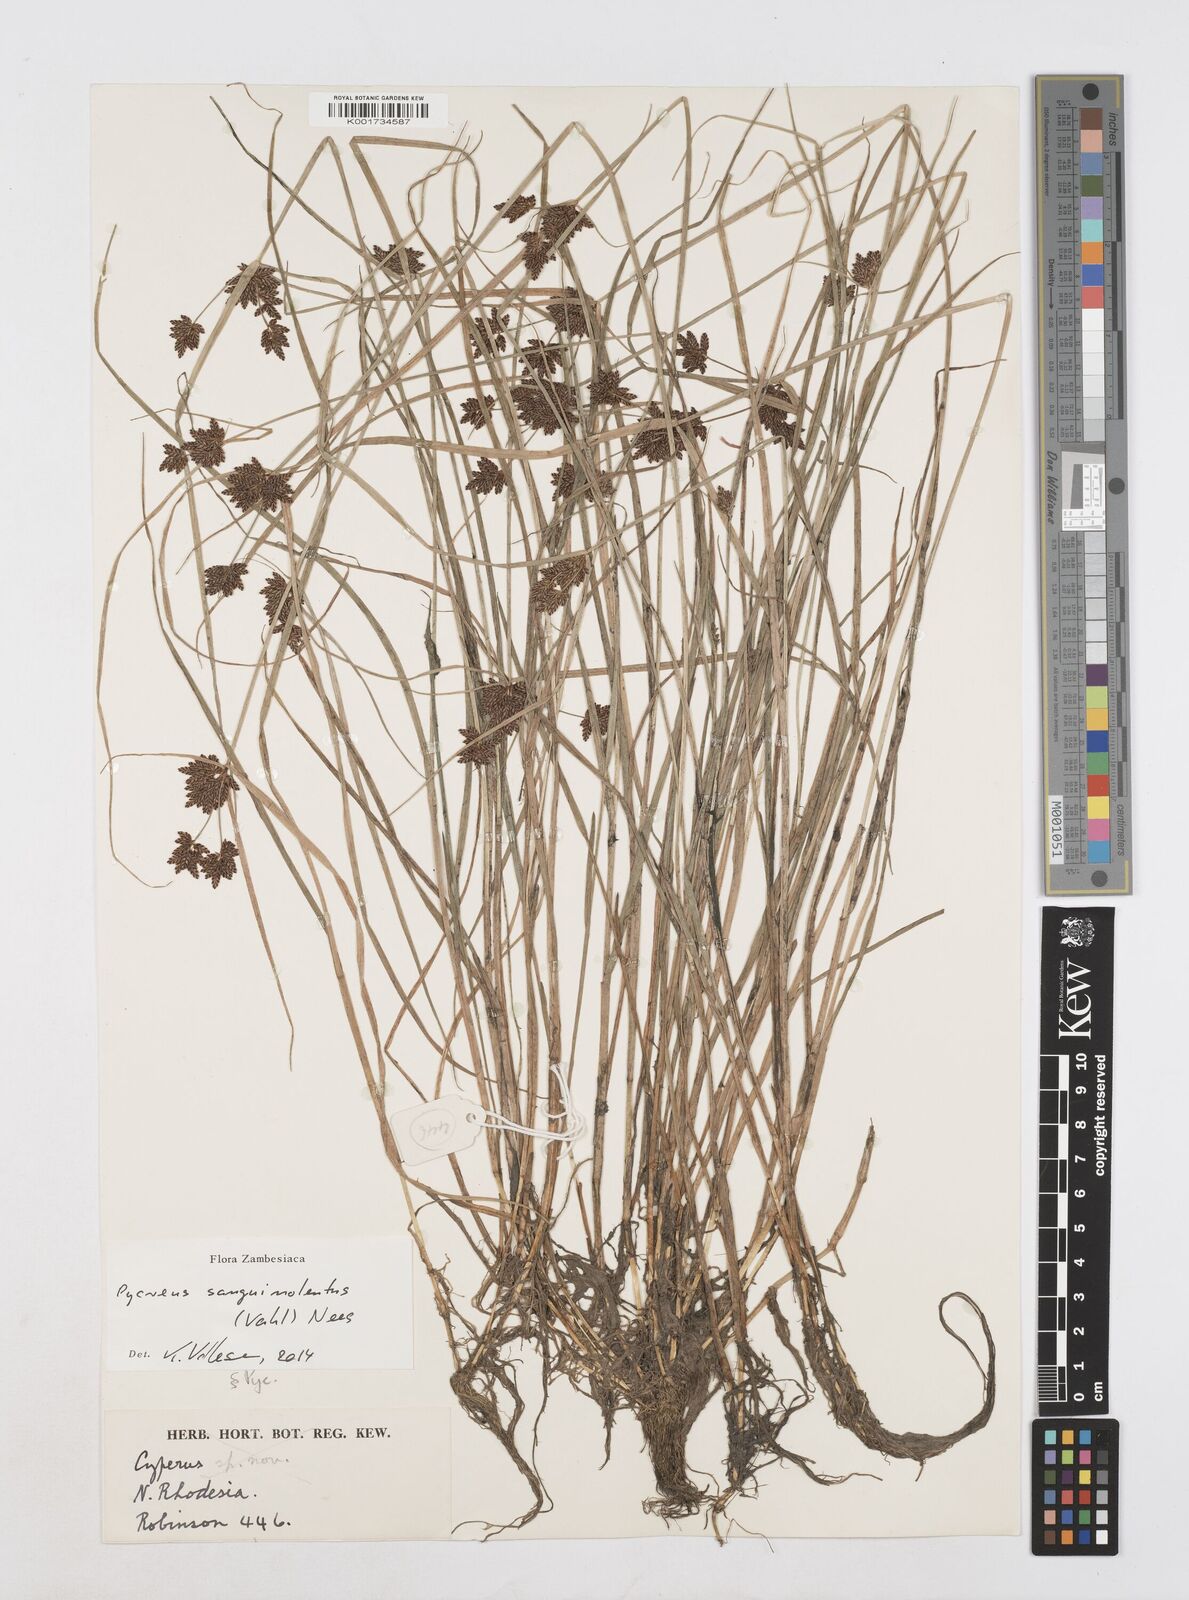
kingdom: Plantae
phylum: Tracheophyta
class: Liliopsida
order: Poales
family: Cyperaceae
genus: Cyperus
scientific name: Cyperus sanguinolentus
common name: Purpleglume flatsedge
